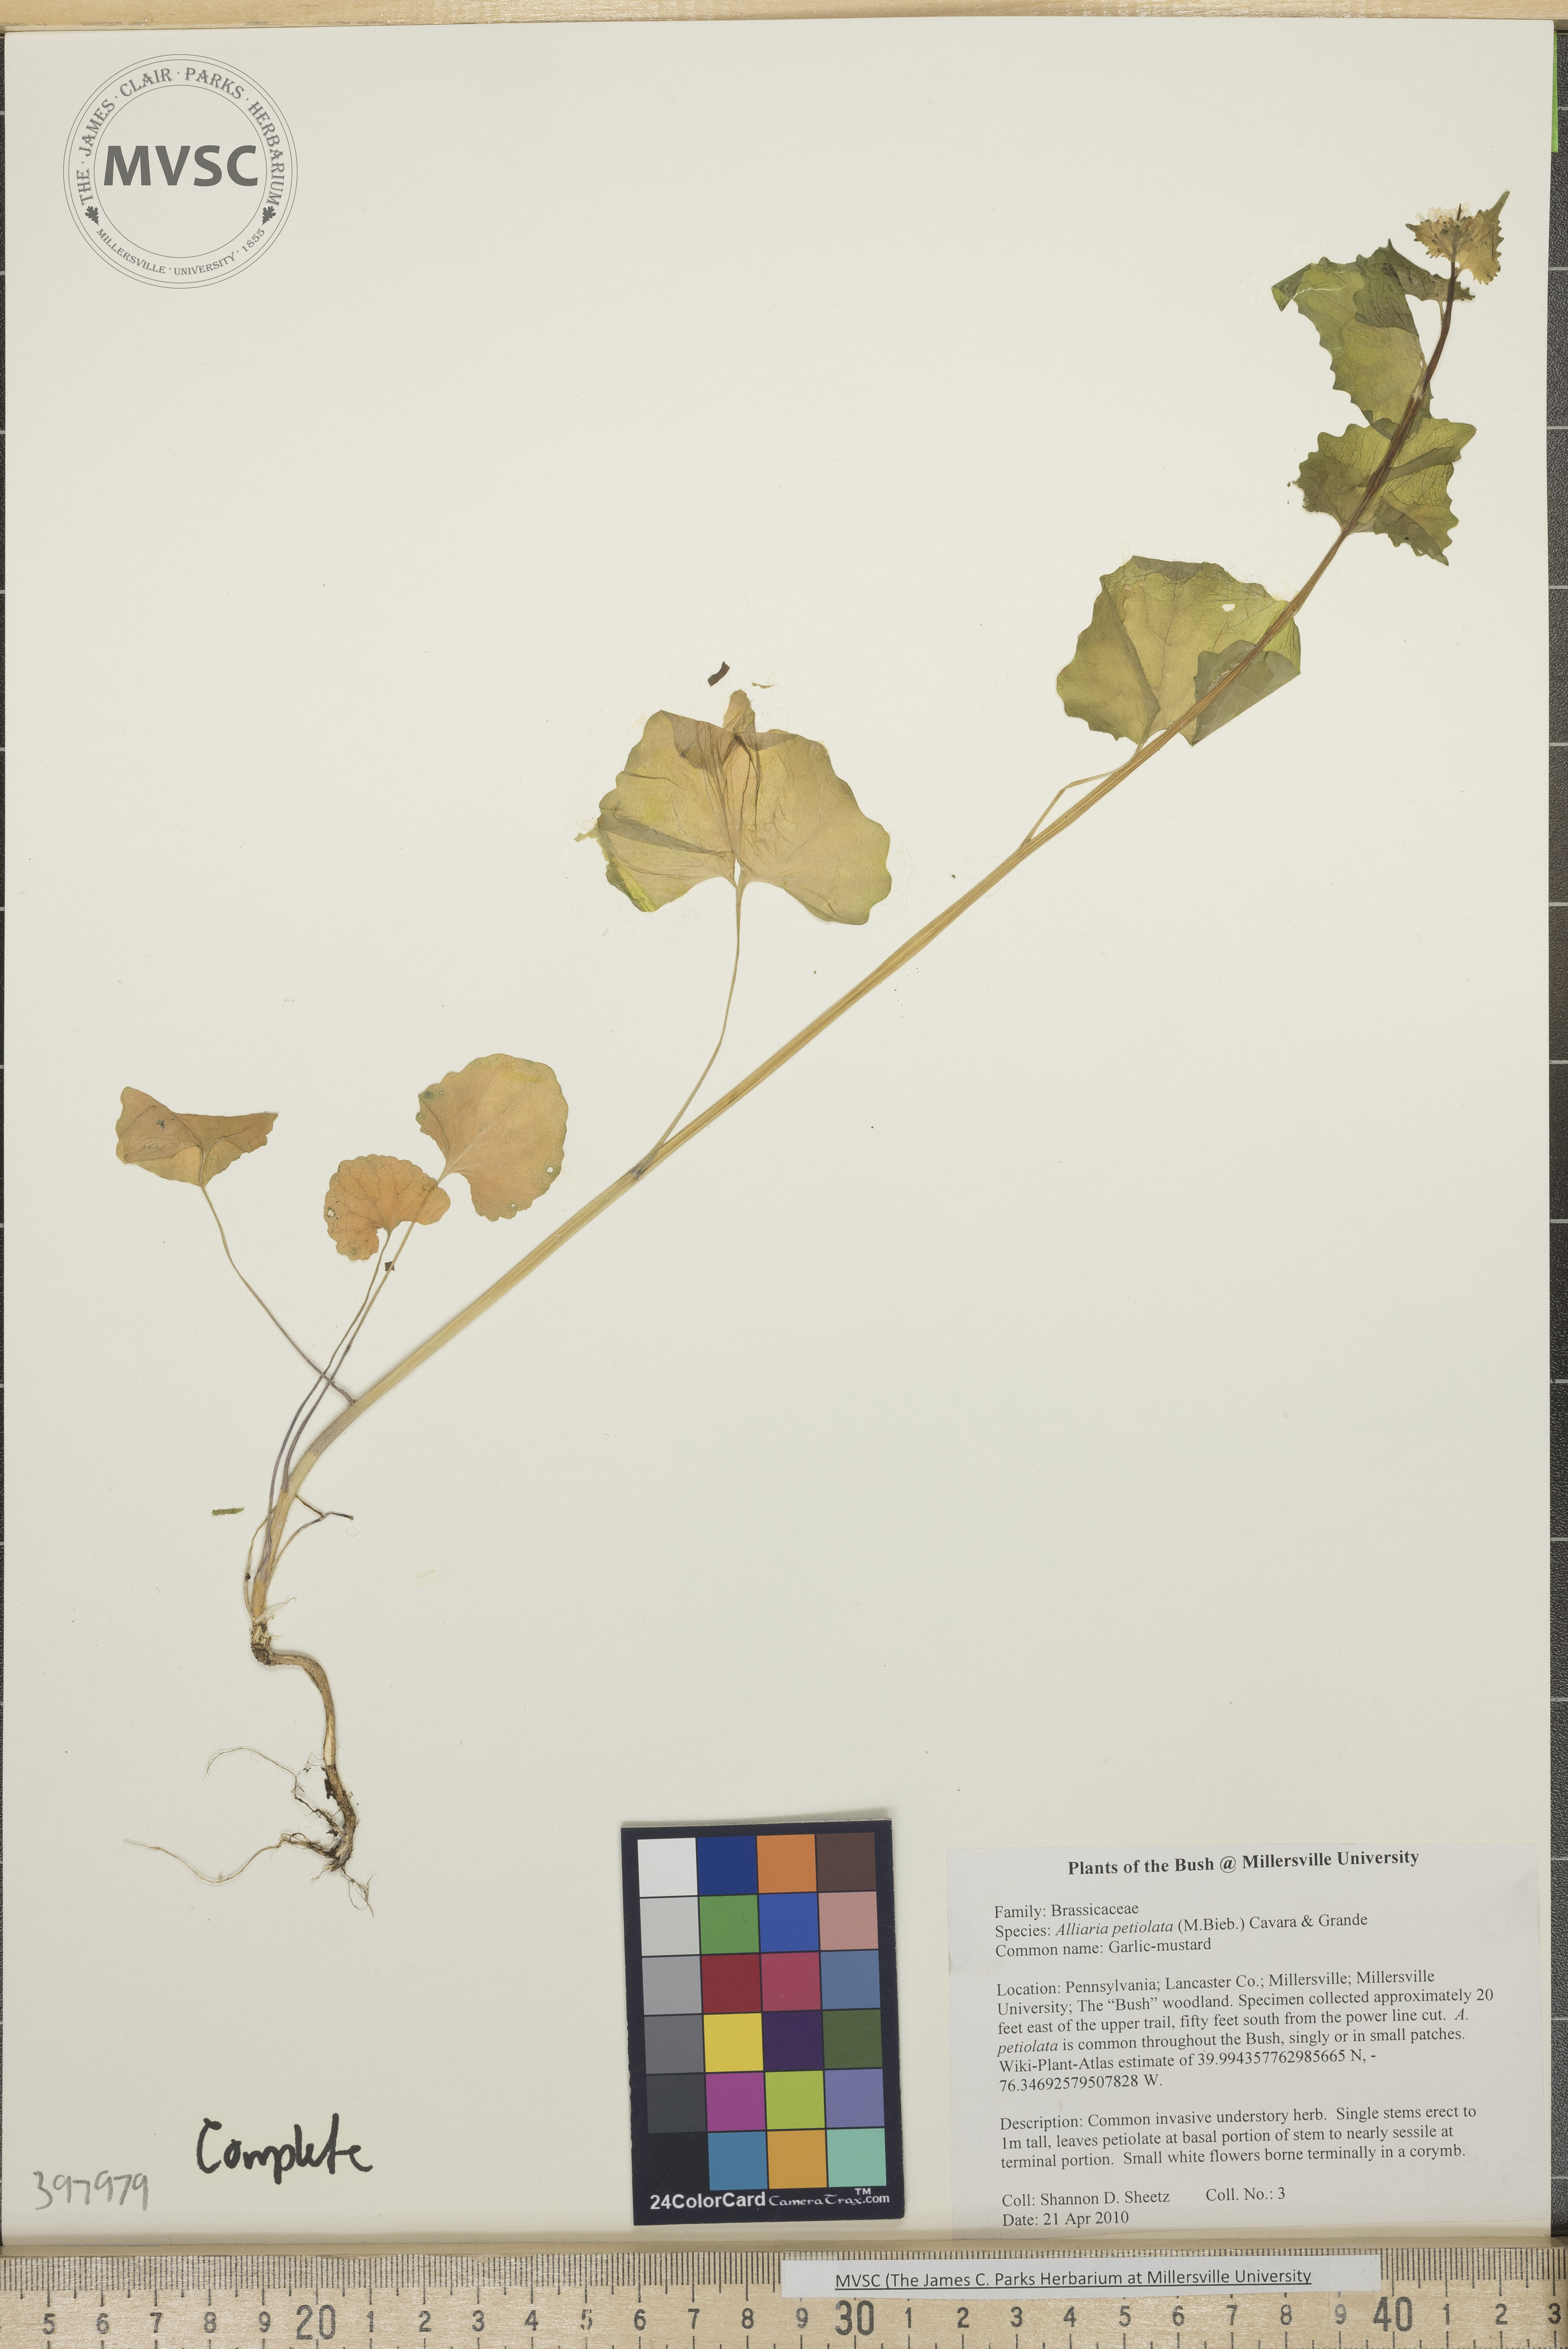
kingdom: Plantae
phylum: Tracheophyta
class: Magnoliopsida
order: Brassicales
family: Brassicaceae
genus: Alliaria
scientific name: Alliaria petiolata
